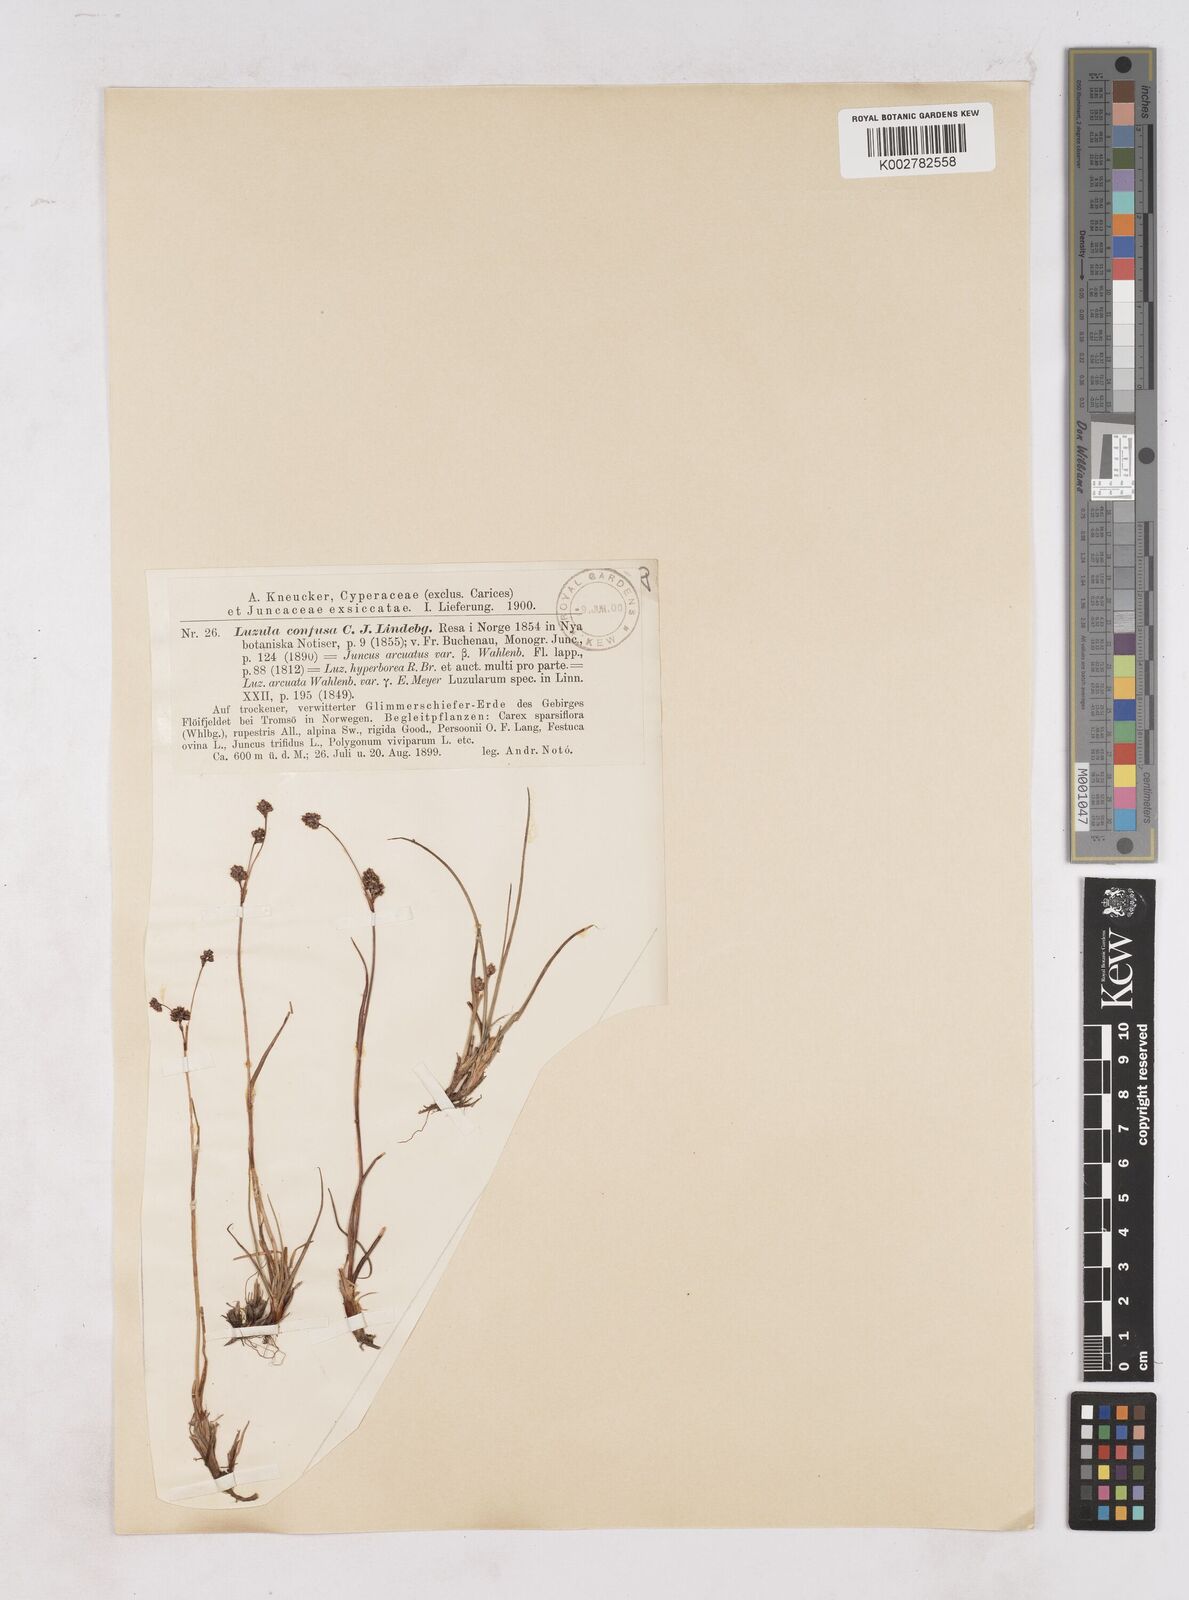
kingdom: Plantae
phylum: Tracheophyta
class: Liliopsida
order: Poales
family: Juncaceae
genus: Luzula
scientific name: Luzula confusa
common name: Northern wood rush
